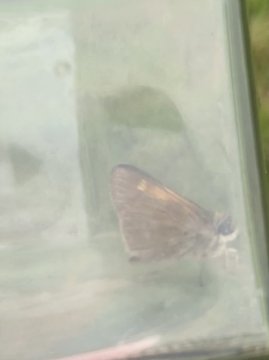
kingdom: Animalia
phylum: Arthropoda
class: Insecta
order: Lepidoptera
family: Hesperiidae
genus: Polites
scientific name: Polites themistocles
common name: Tawny-edged Skipper
